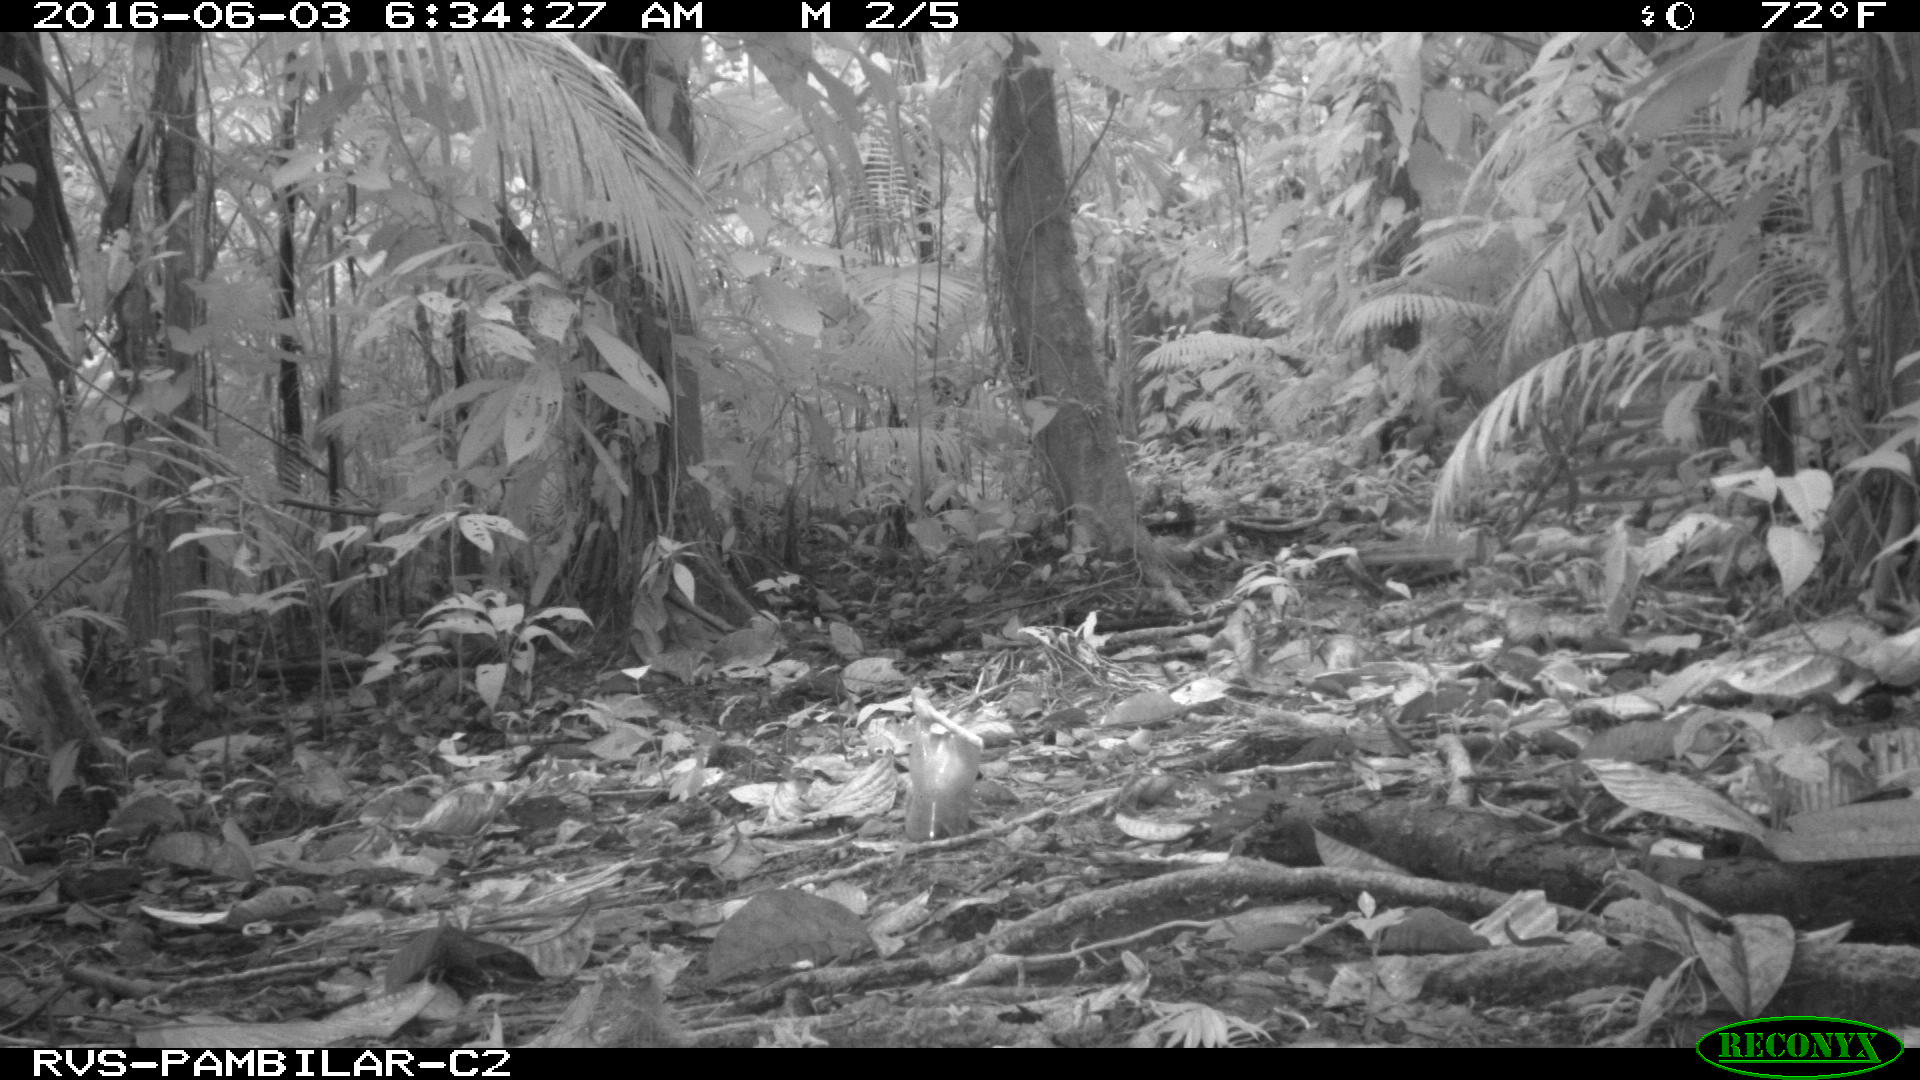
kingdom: Animalia
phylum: Chordata
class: Mammalia
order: Rodentia
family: Dasyproctidae
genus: Dasyprocta
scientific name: Dasyprocta punctata
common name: Central american agouti
